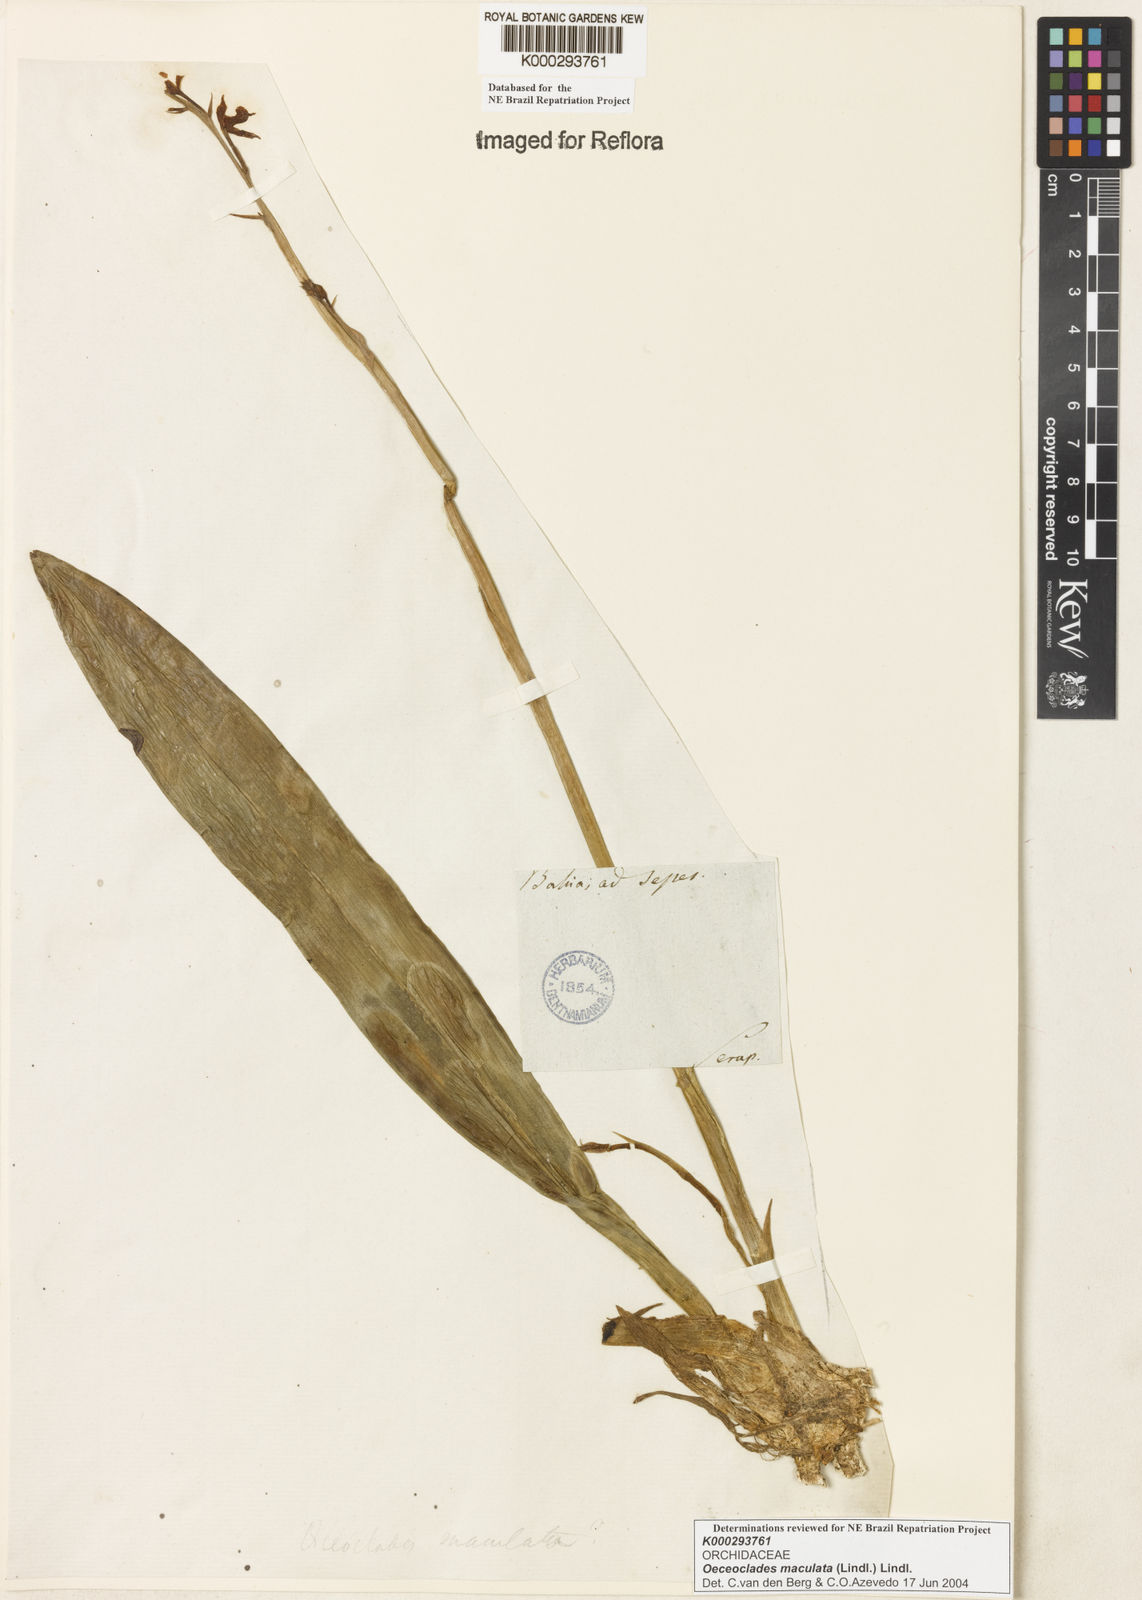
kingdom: Plantae
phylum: Tracheophyta
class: Liliopsida
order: Asparagales
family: Orchidaceae
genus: Eulophia
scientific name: Eulophia maculata
